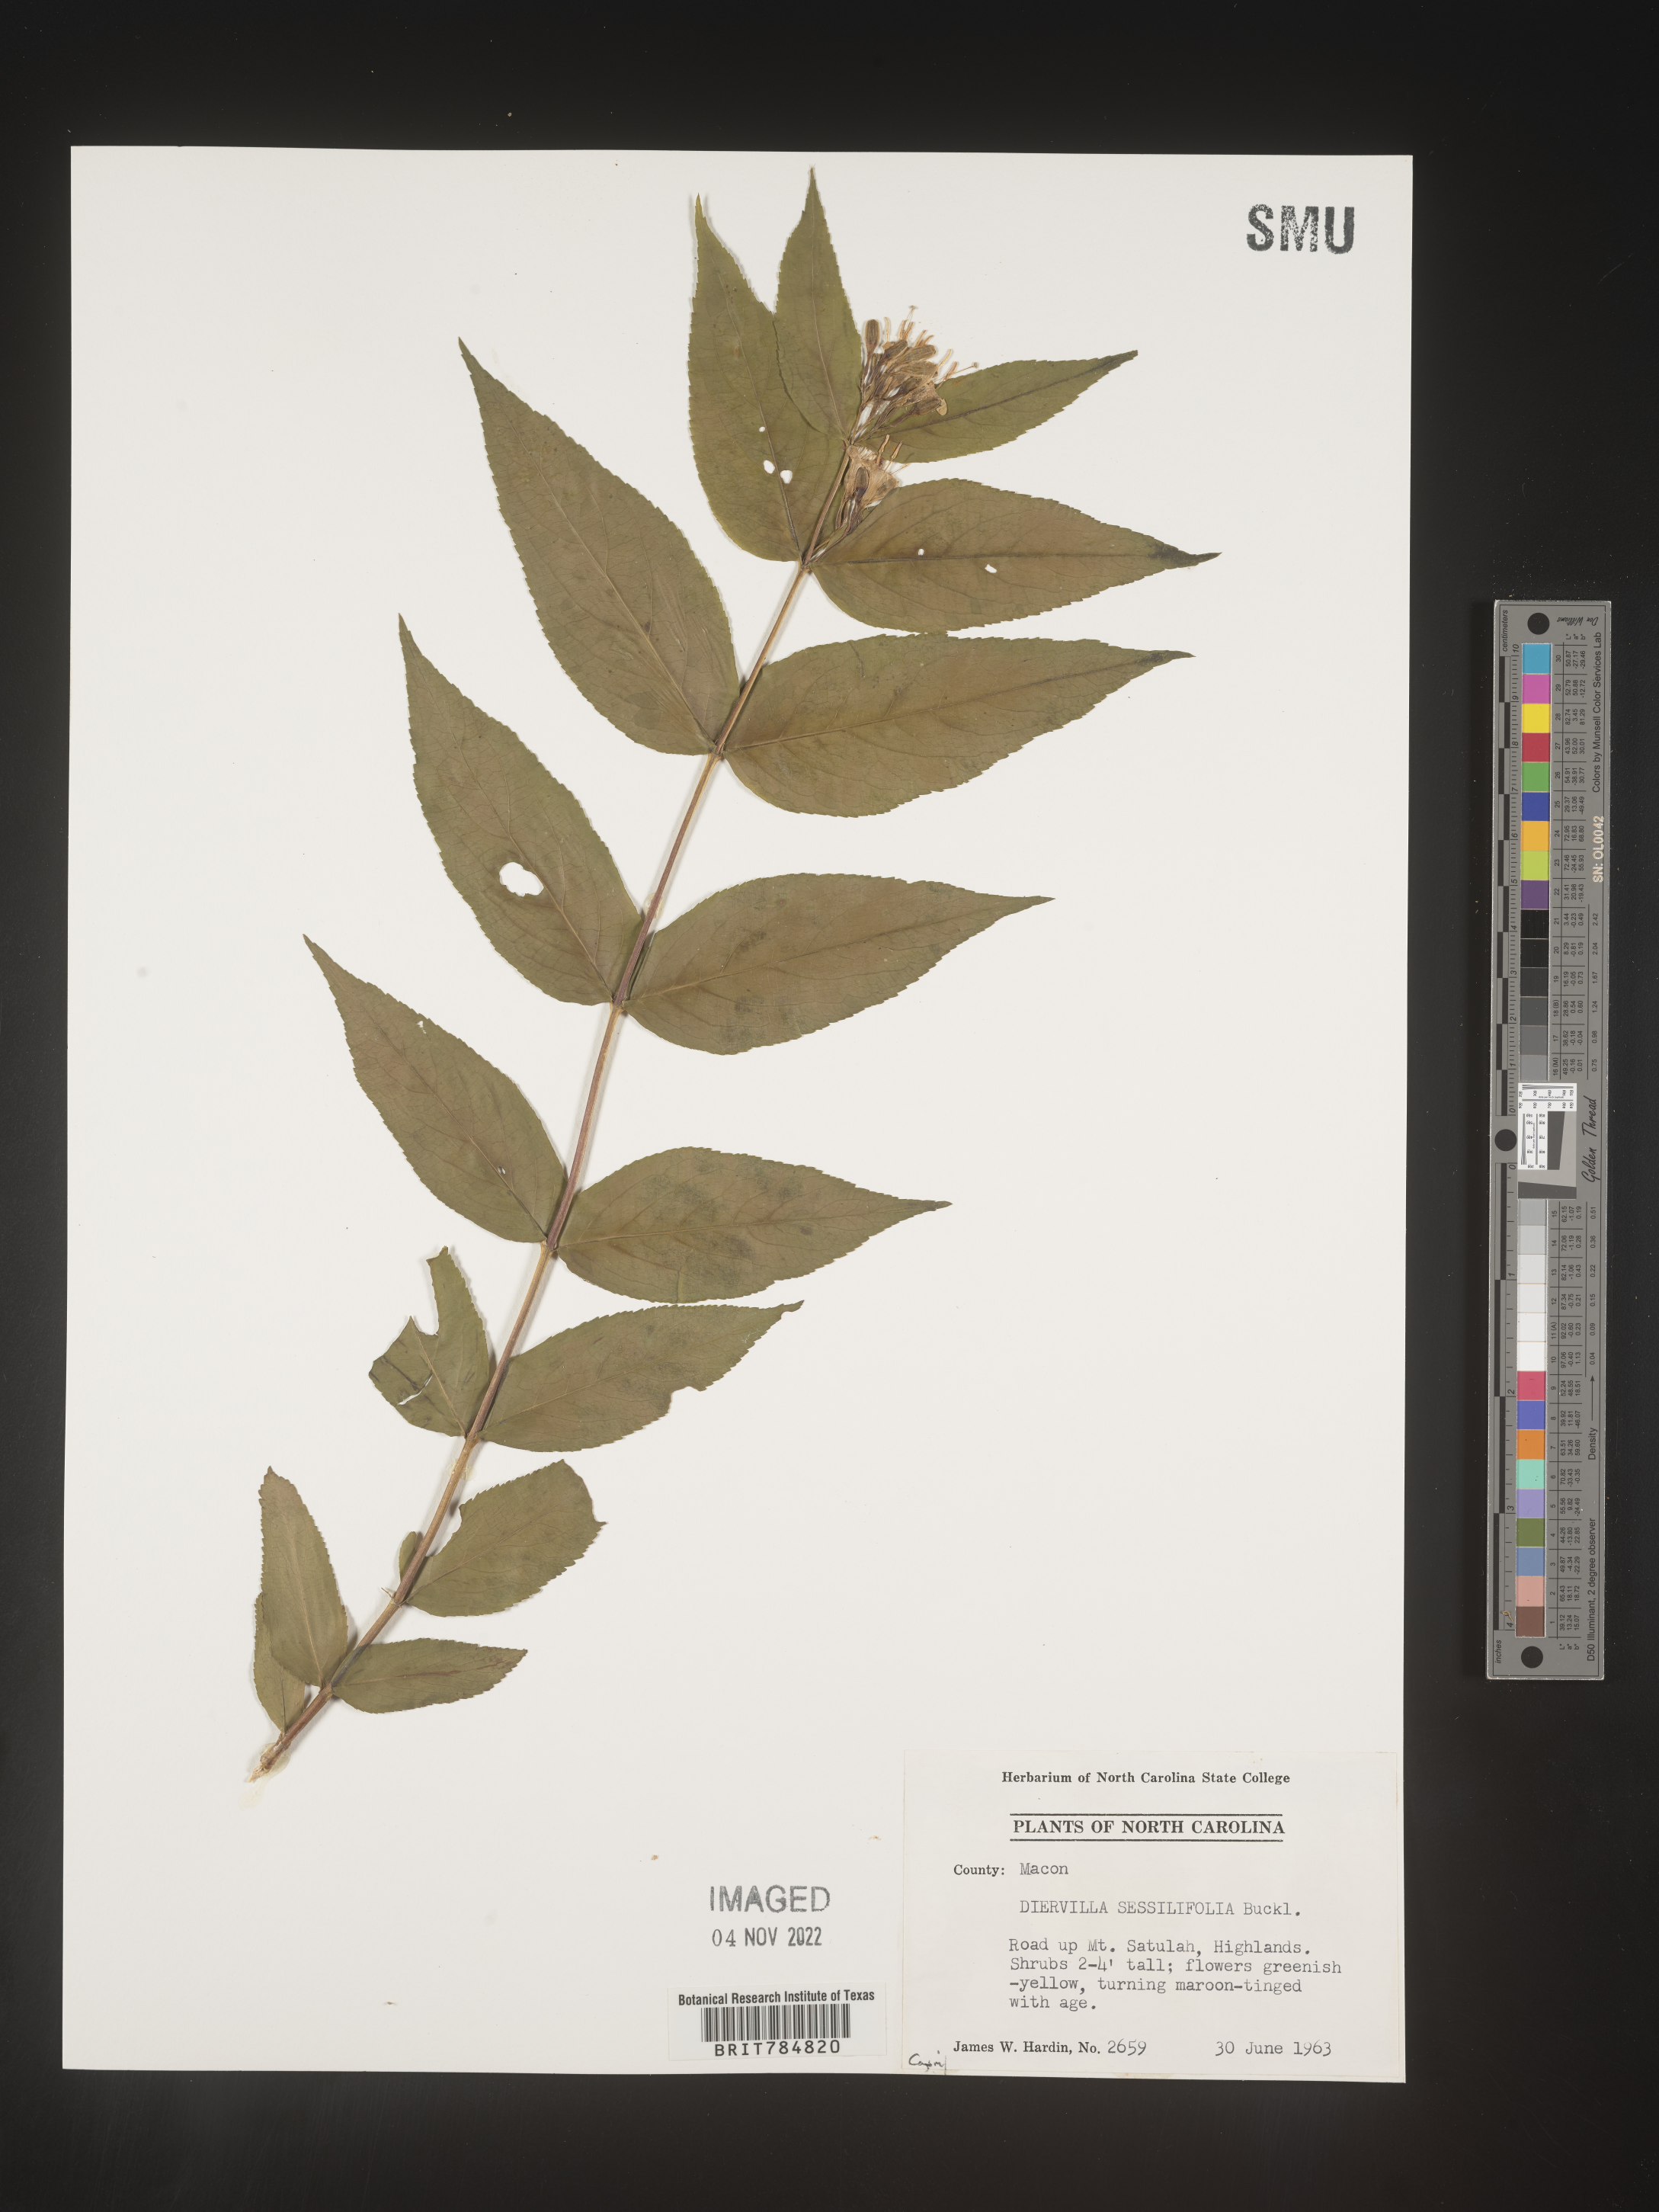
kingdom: Plantae
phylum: Tracheophyta
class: Magnoliopsida
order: Dipsacales
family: Caprifoliaceae
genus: Diervilla
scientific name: Diervilla
